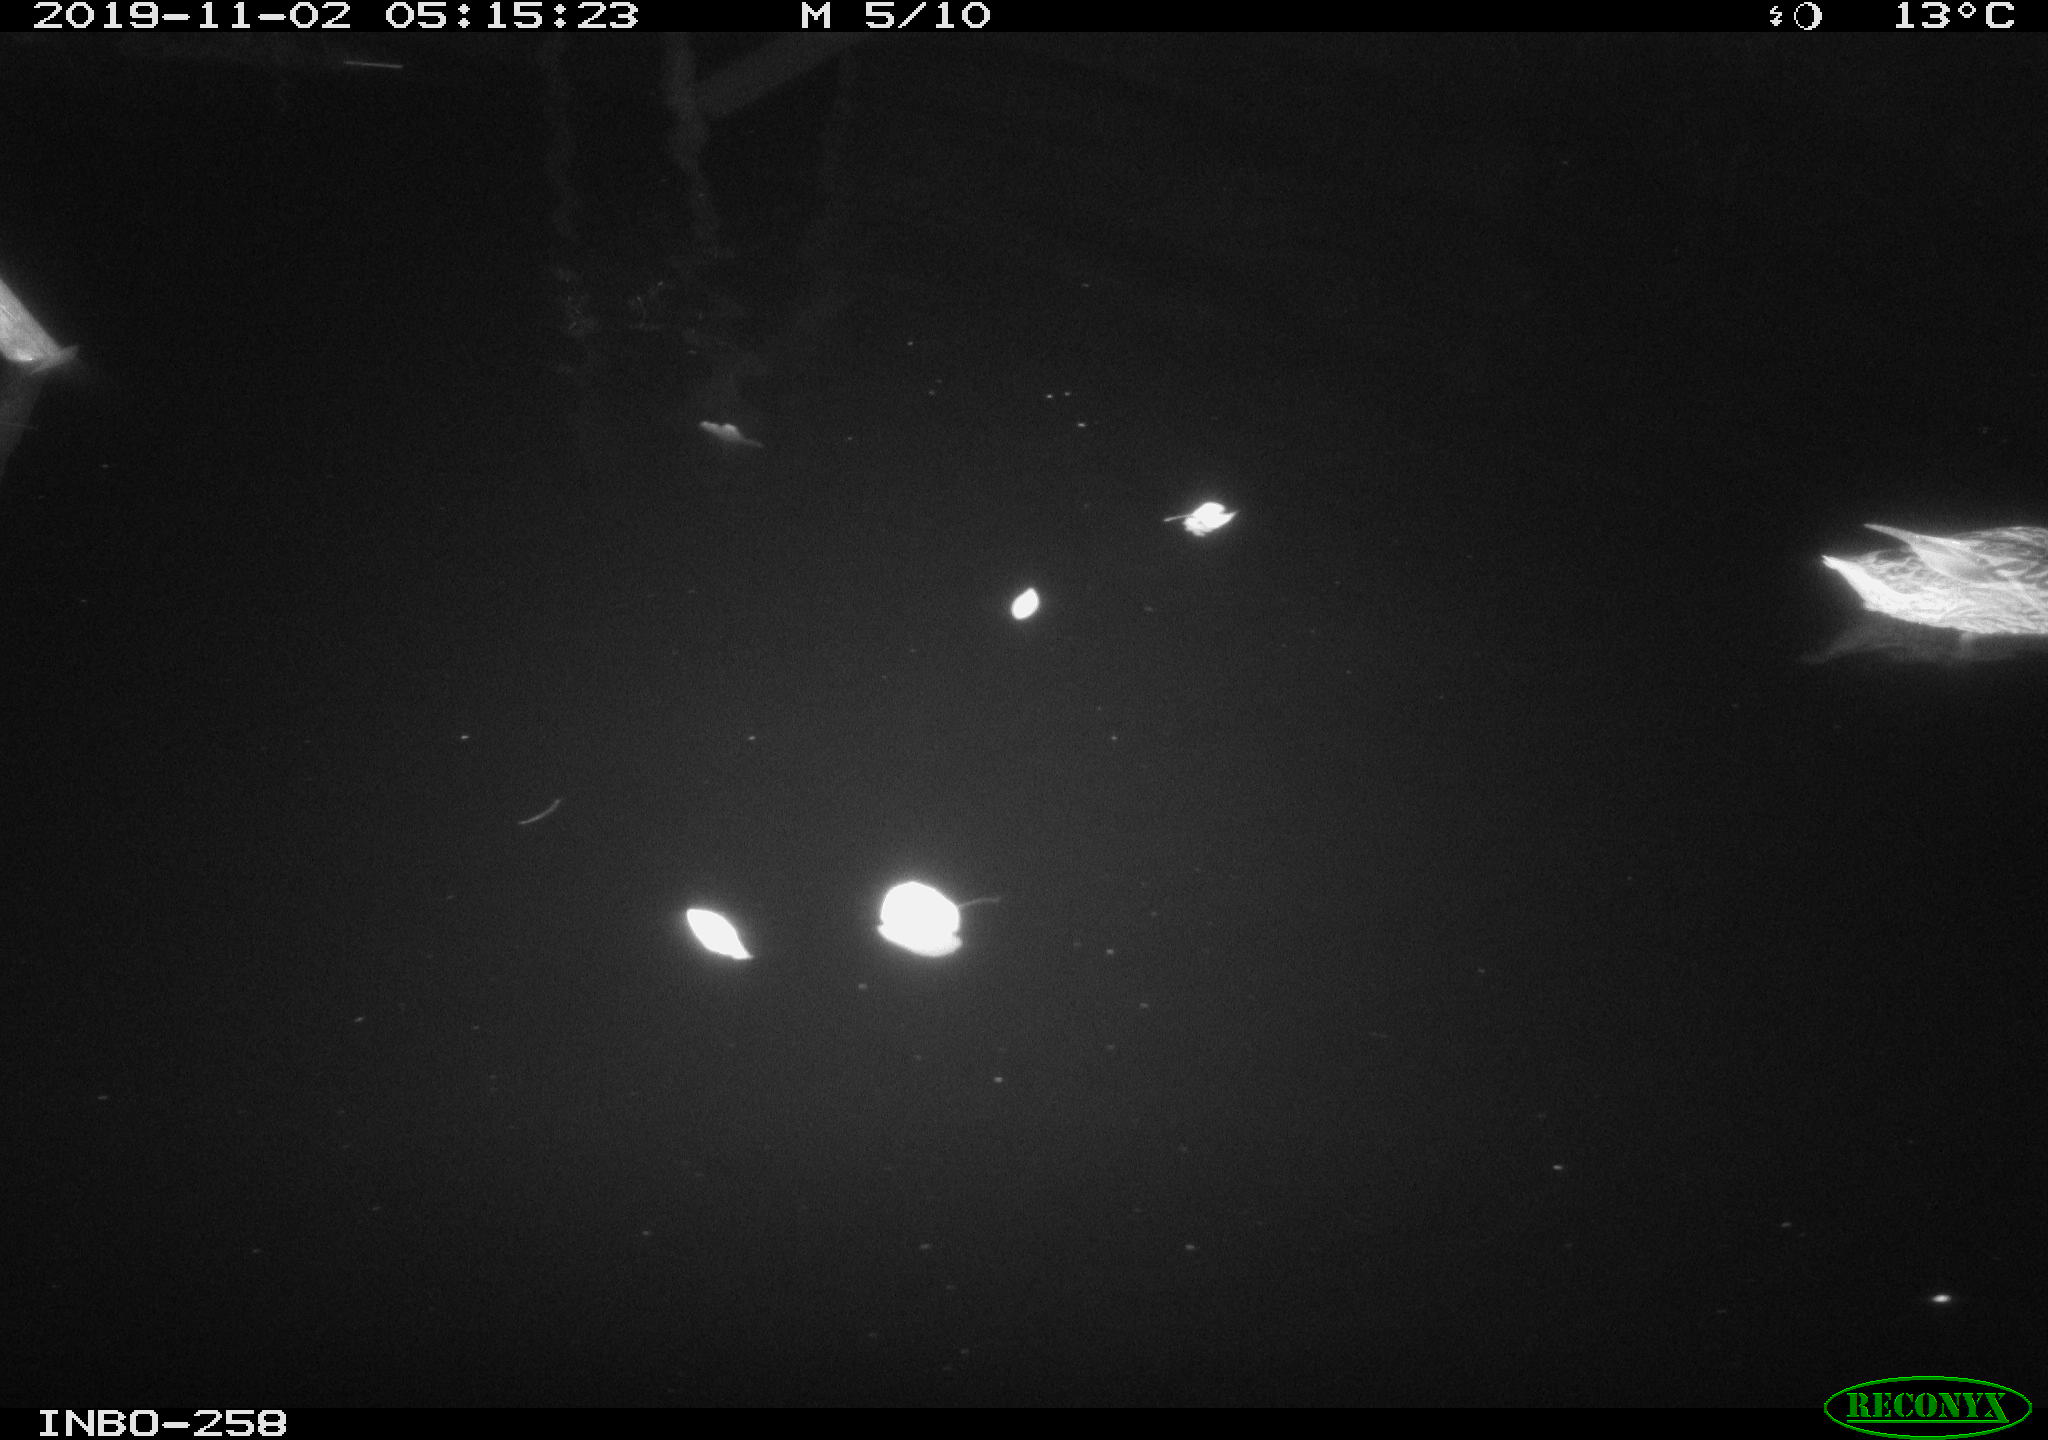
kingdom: Animalia
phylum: Chordata
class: Aves
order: Anseriformes
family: Anatidae
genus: Anas
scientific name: Anas platyrhynchos
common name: Mallard
